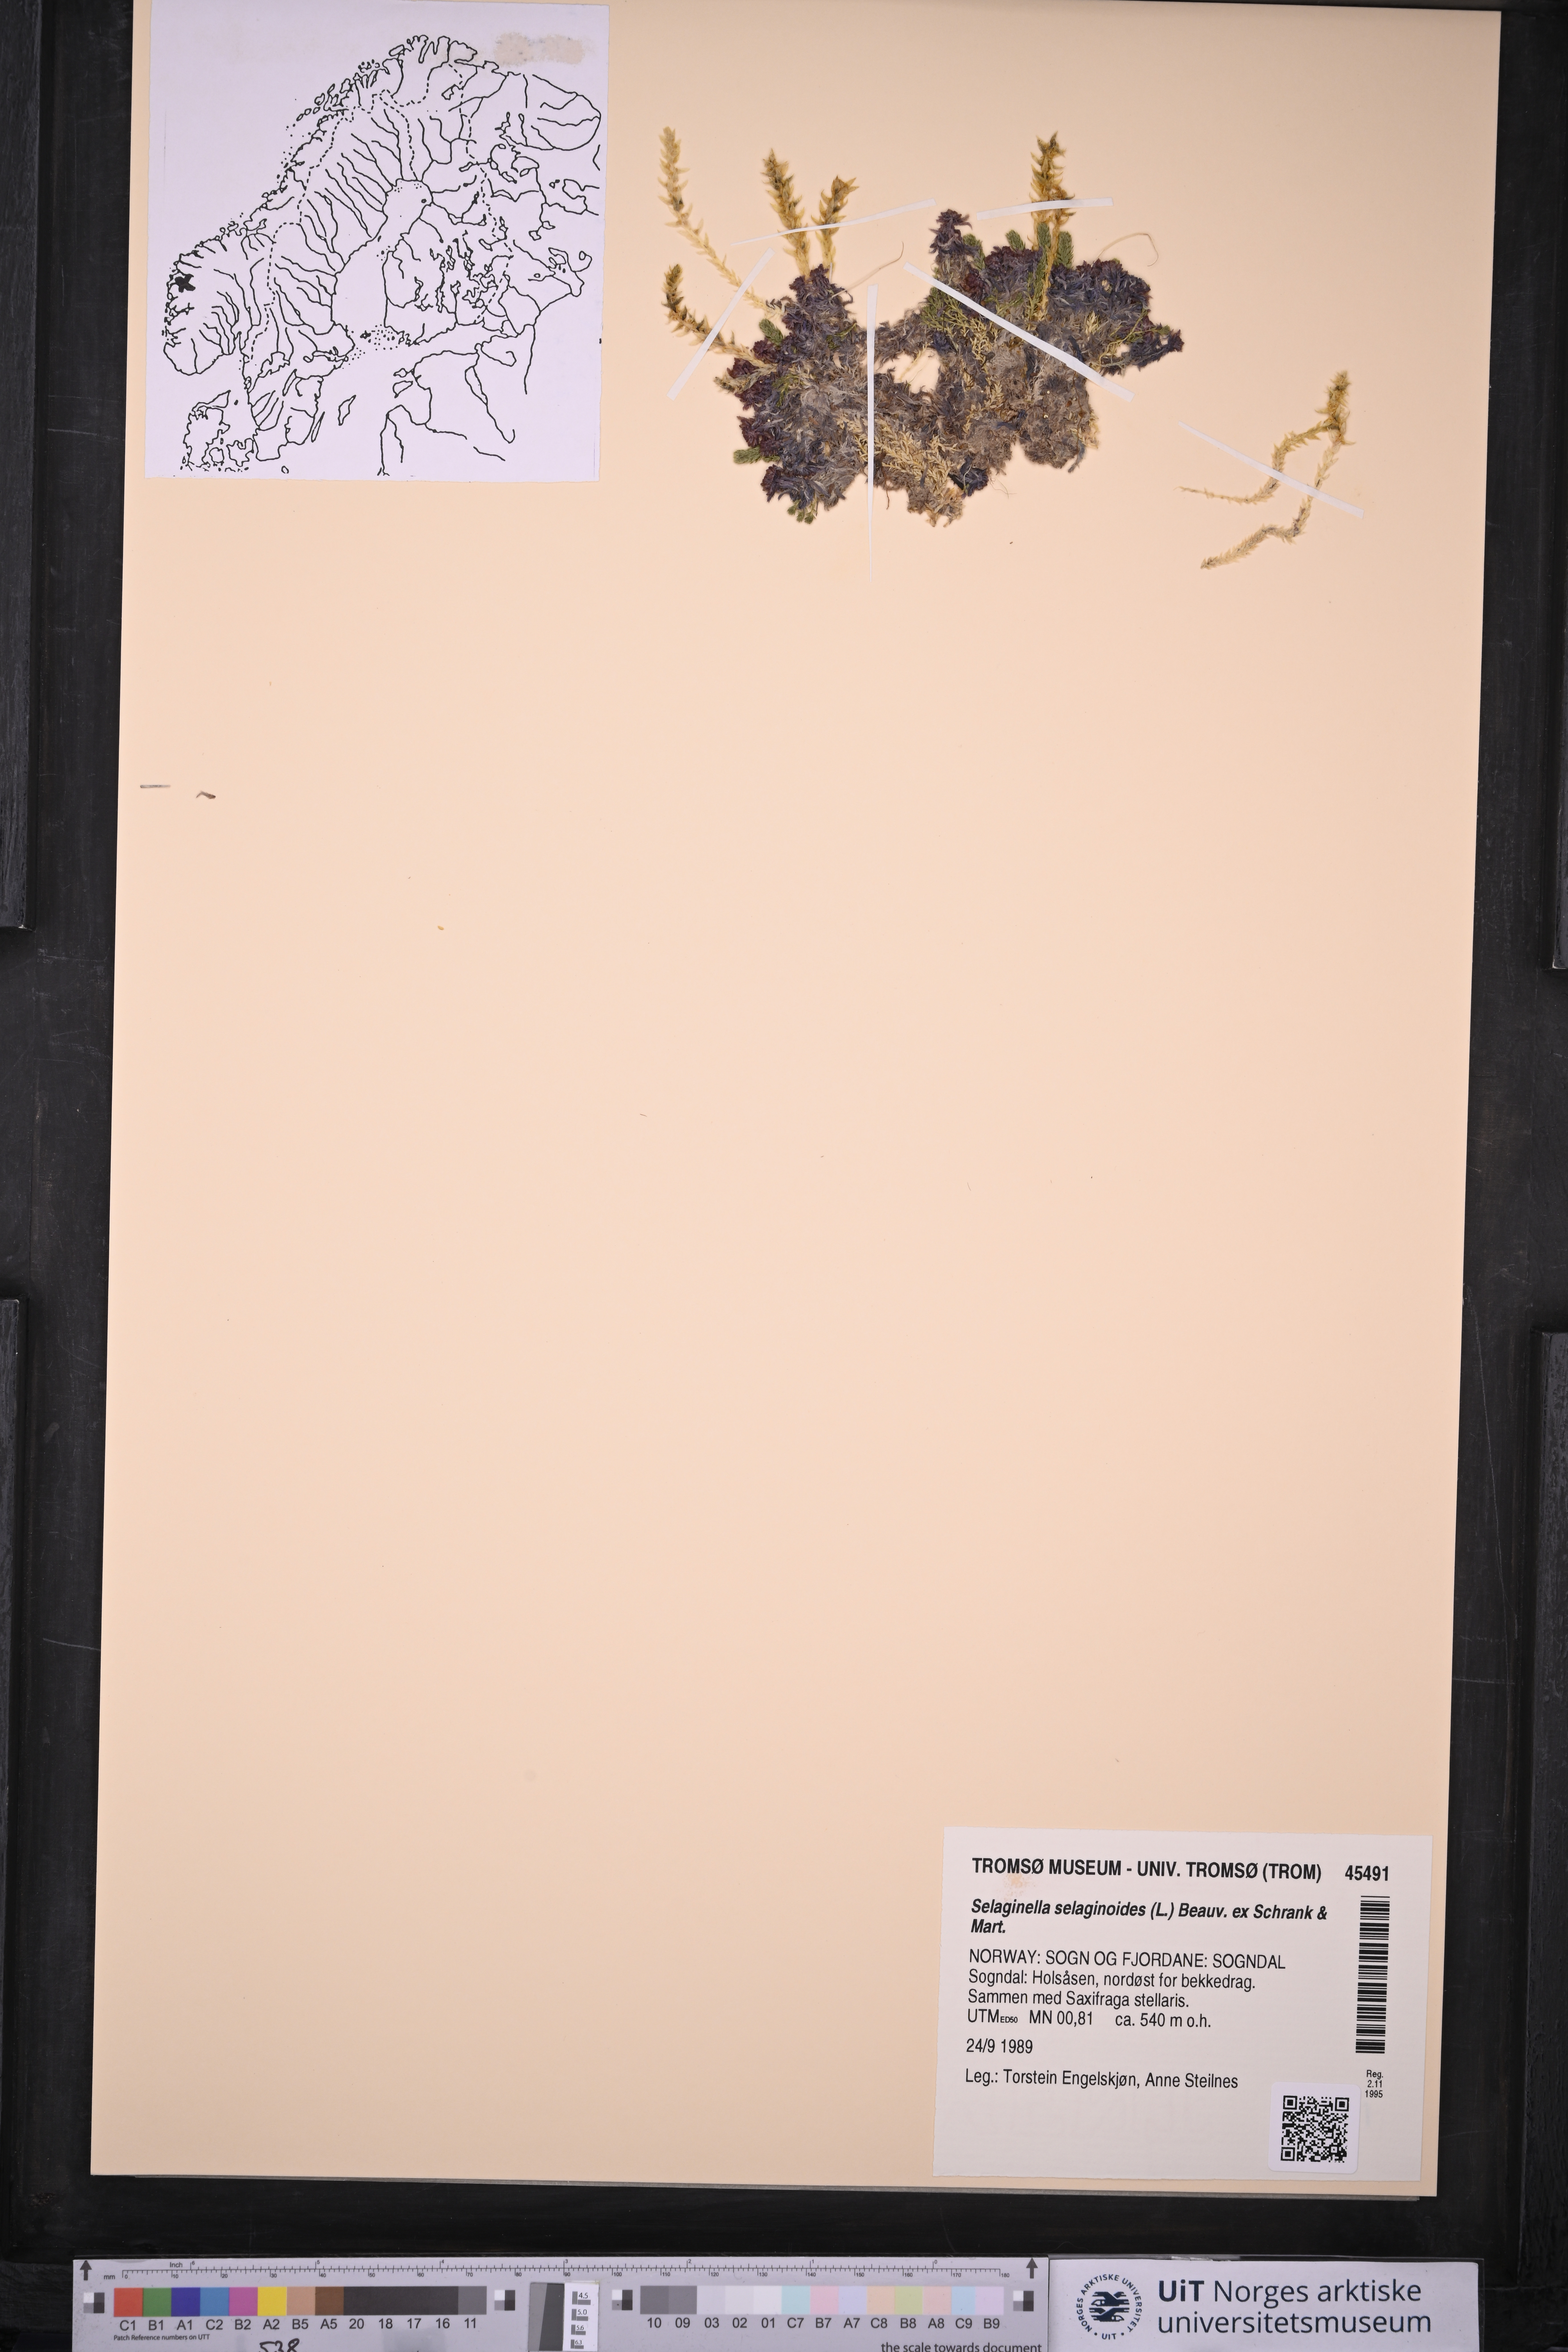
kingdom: Plantae
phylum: Tracheophyta
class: Lycopodiopsida
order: Selaginellales
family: Selaginellaceae
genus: Selaginella
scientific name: Selaginella selaginoides
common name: Prickly mountain-moss
